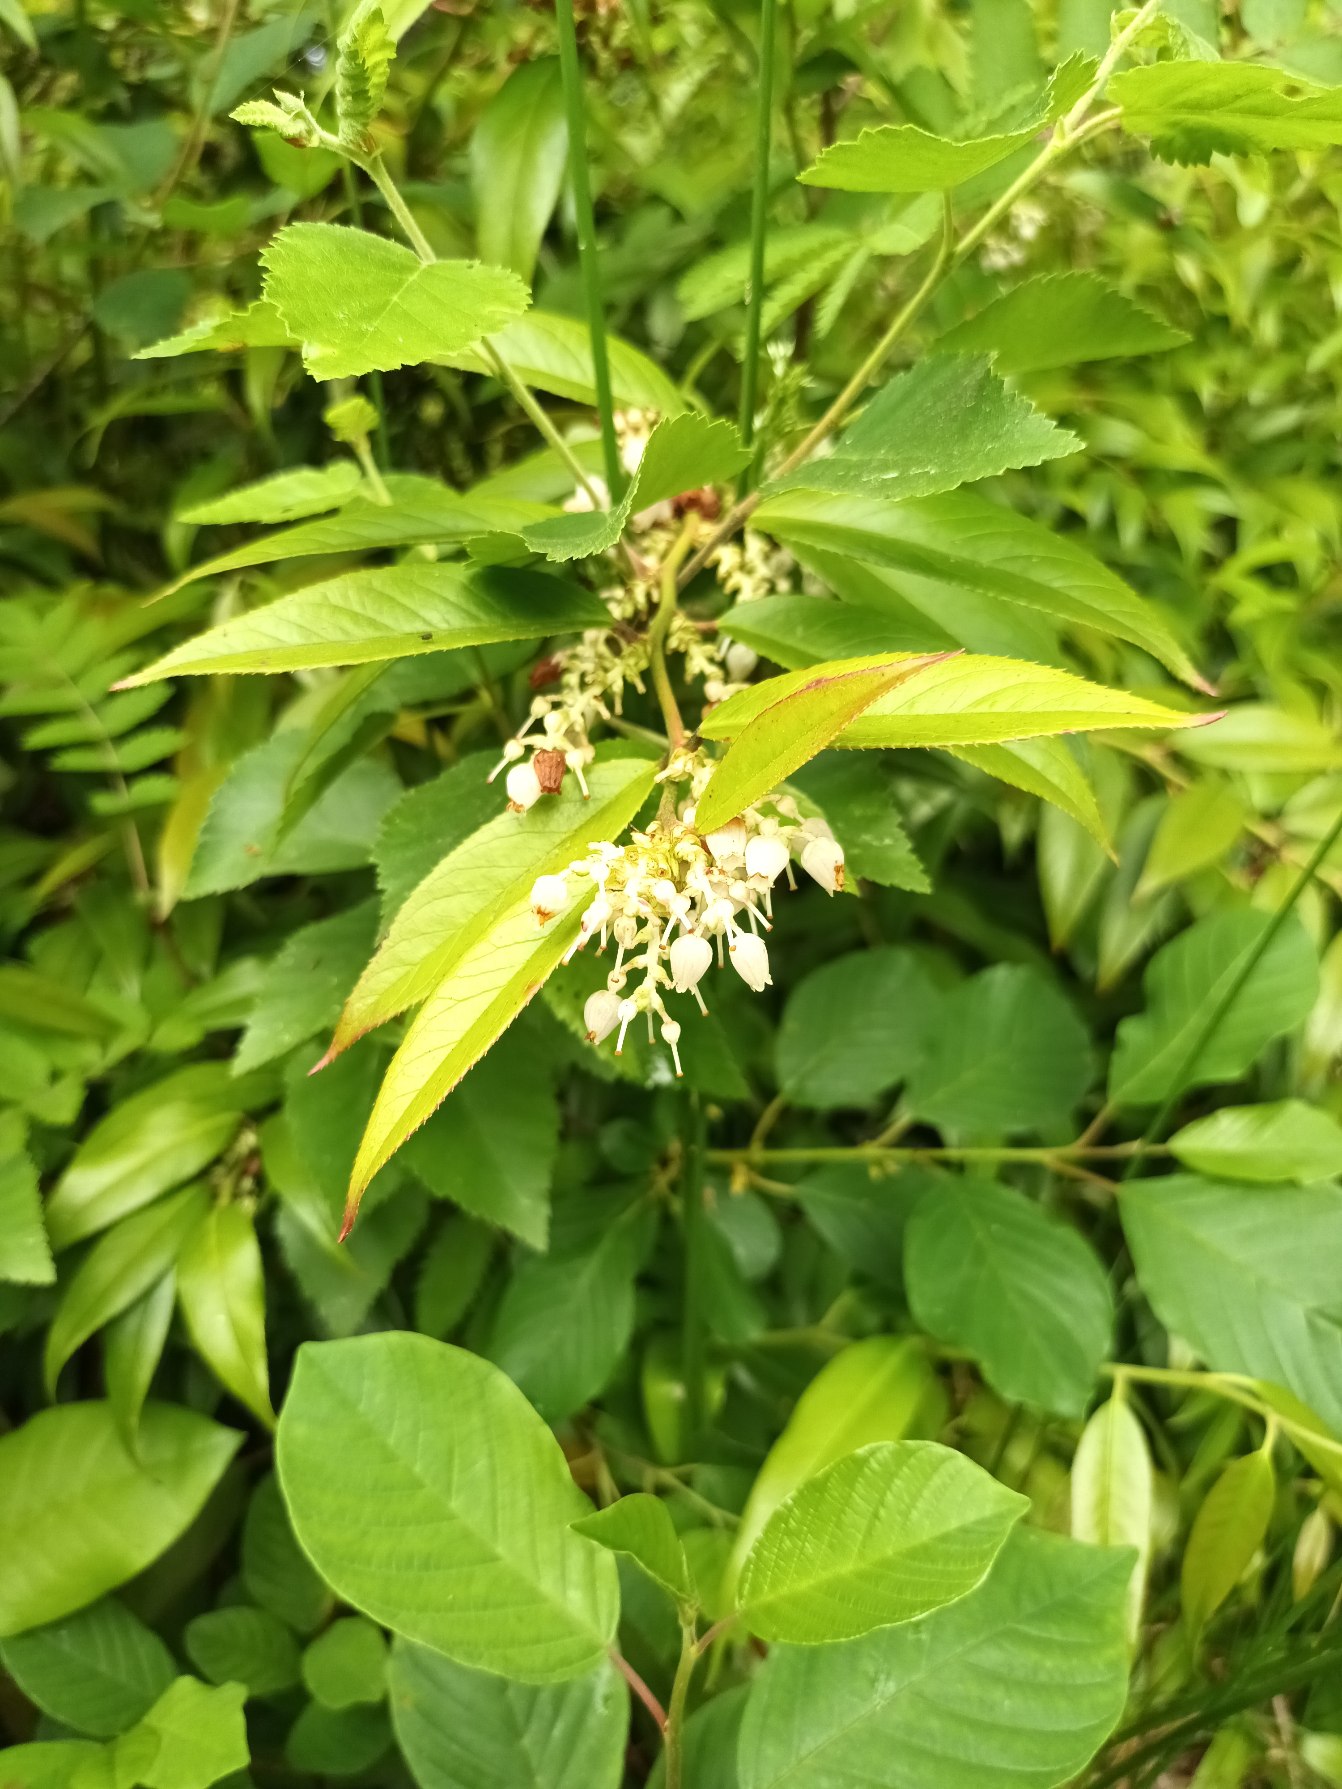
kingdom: Plantae
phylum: Tracheophyta
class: Magnoliopsida
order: Ericales
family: Ericaceae
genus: Leucothoe
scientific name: Leucothoe axillaris
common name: Aksel-druelyng
